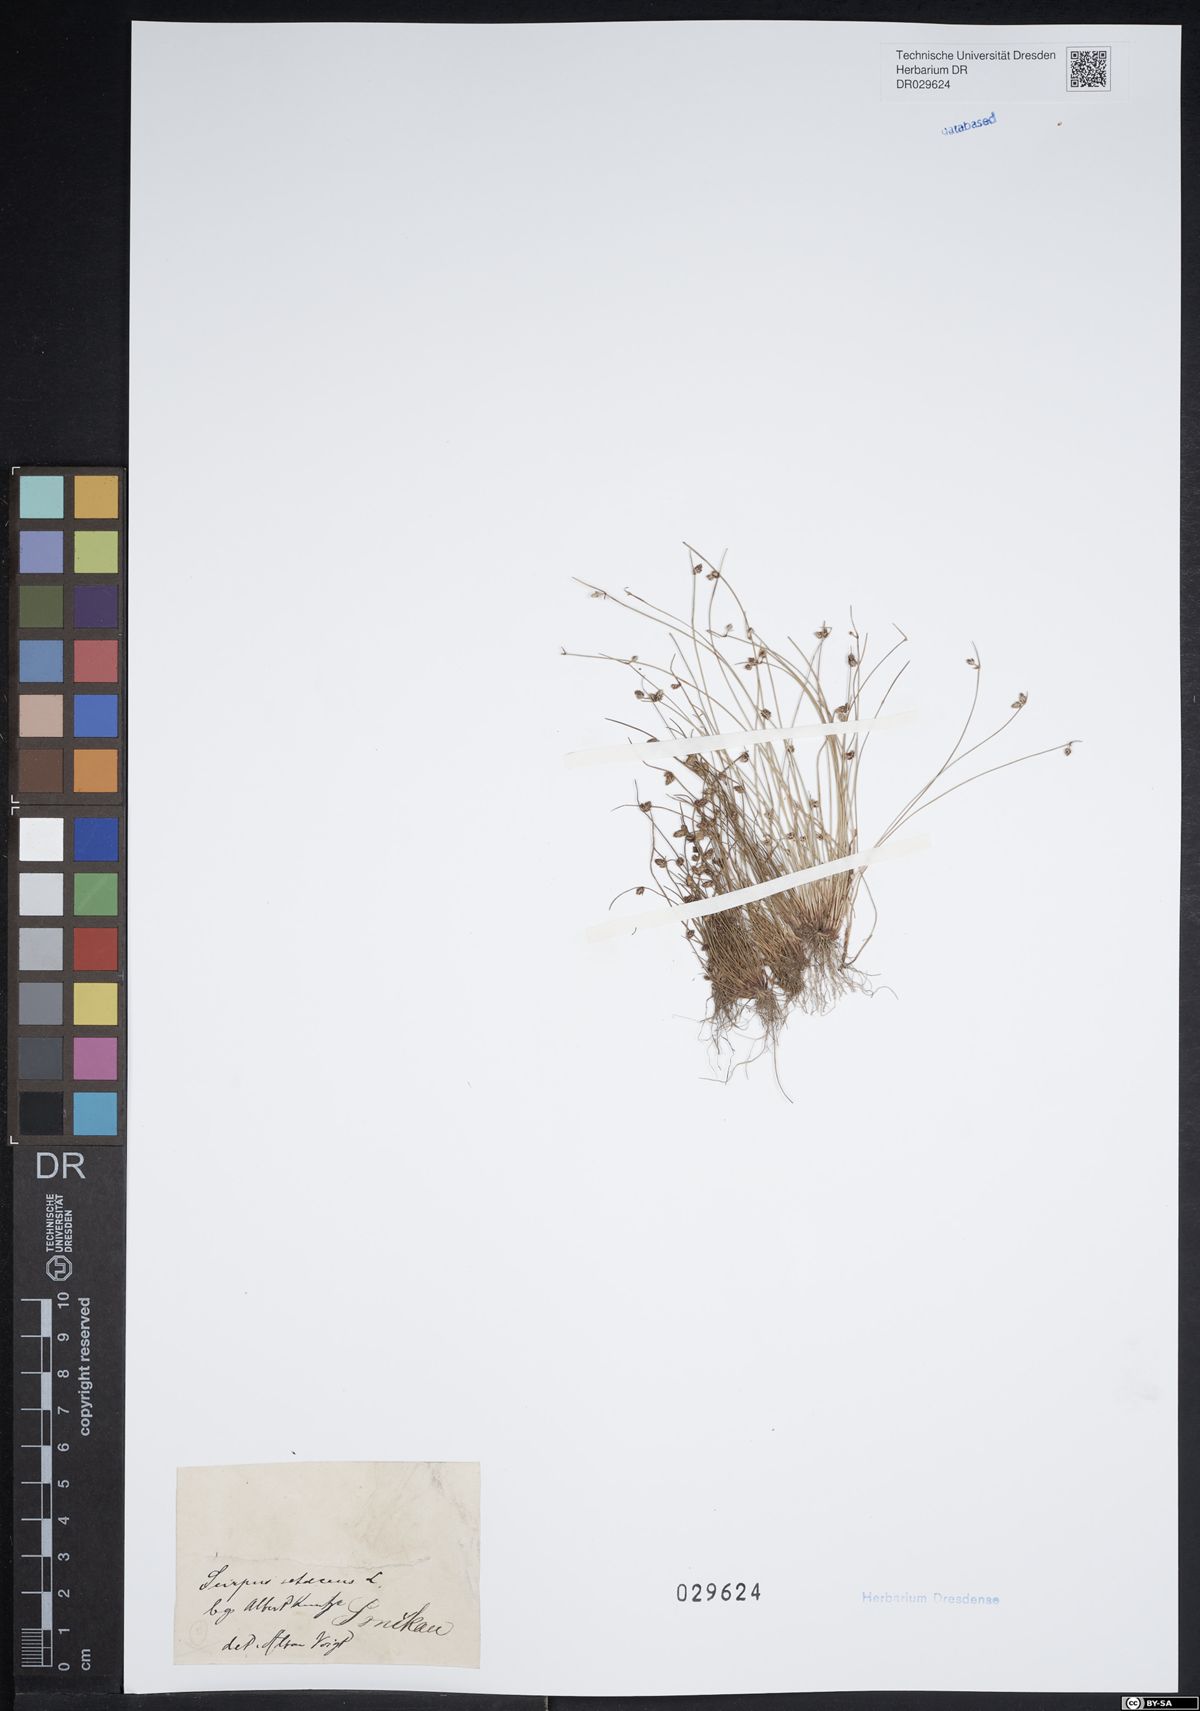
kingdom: Plantae
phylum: Tracheophyta
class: Liliopsida
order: Poales
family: Cyperaceae
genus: Isolepis
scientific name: Isolepis setacea
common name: Bristle club-rush
